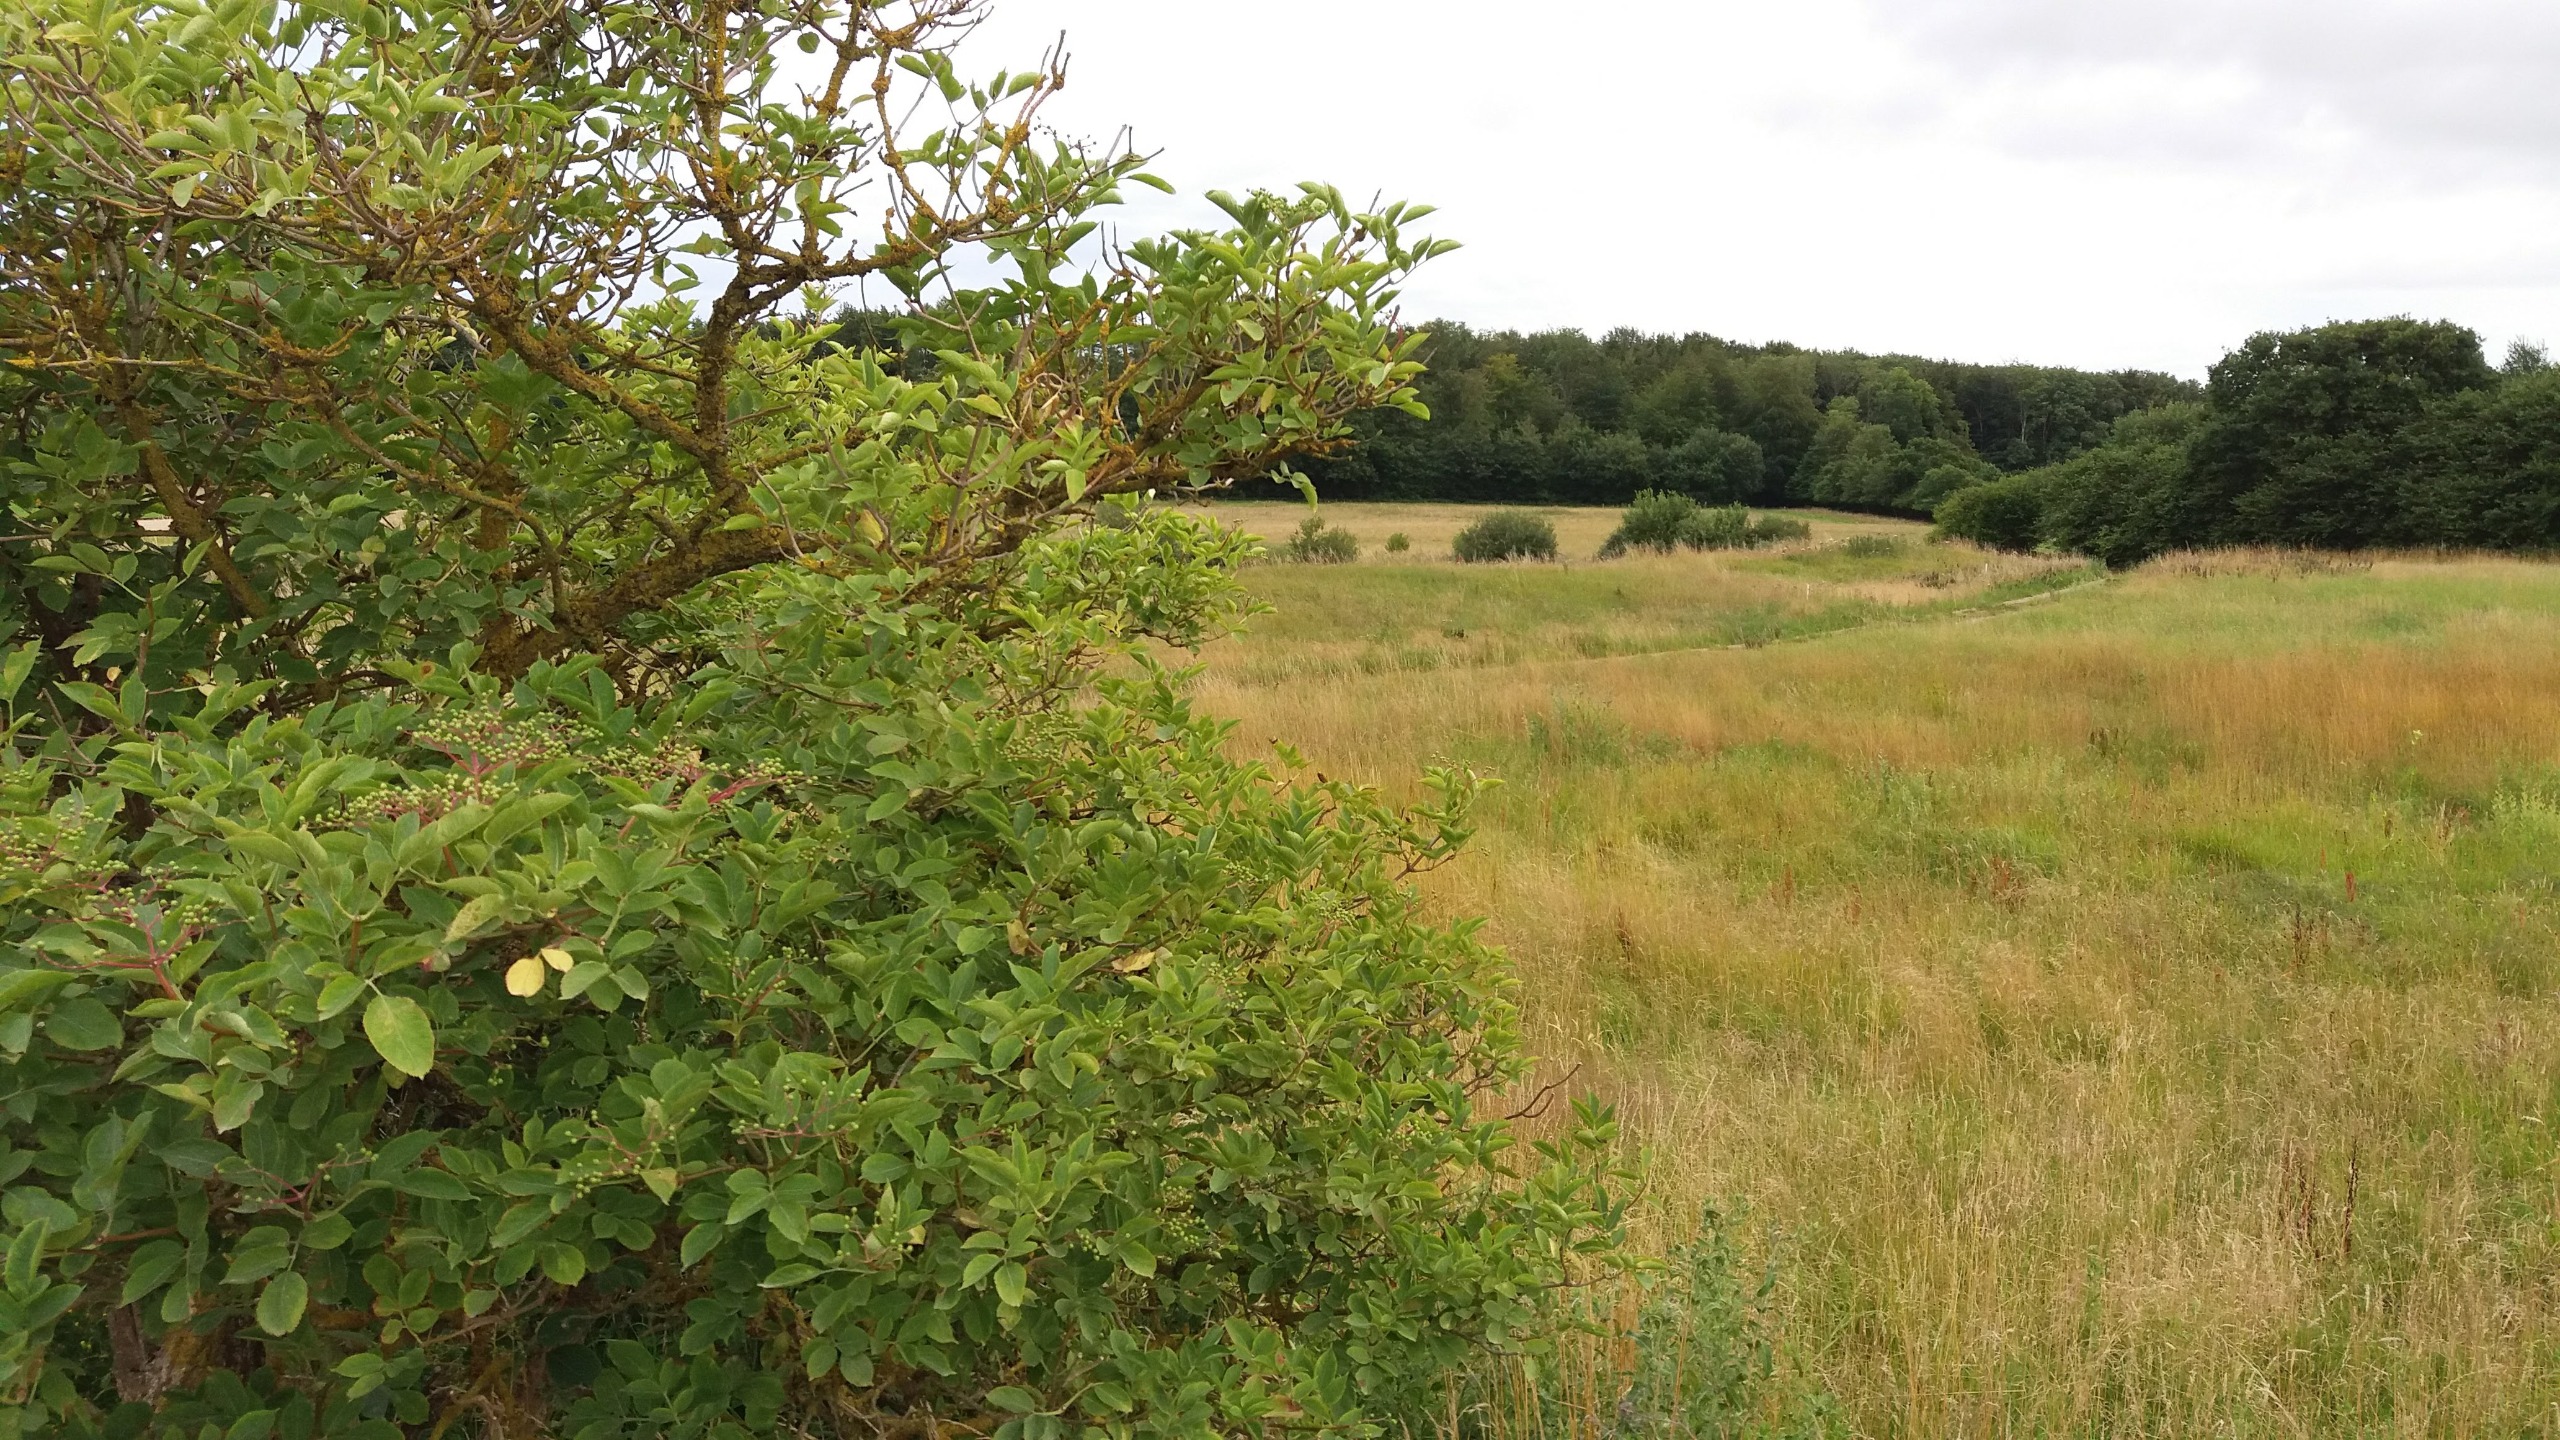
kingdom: Plantae
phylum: Tracheophyta
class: Magnoliopsida
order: Dipsacales
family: Viburnaceae
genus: Sambucus
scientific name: Sambucus nigra
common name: Almindelig hyld
